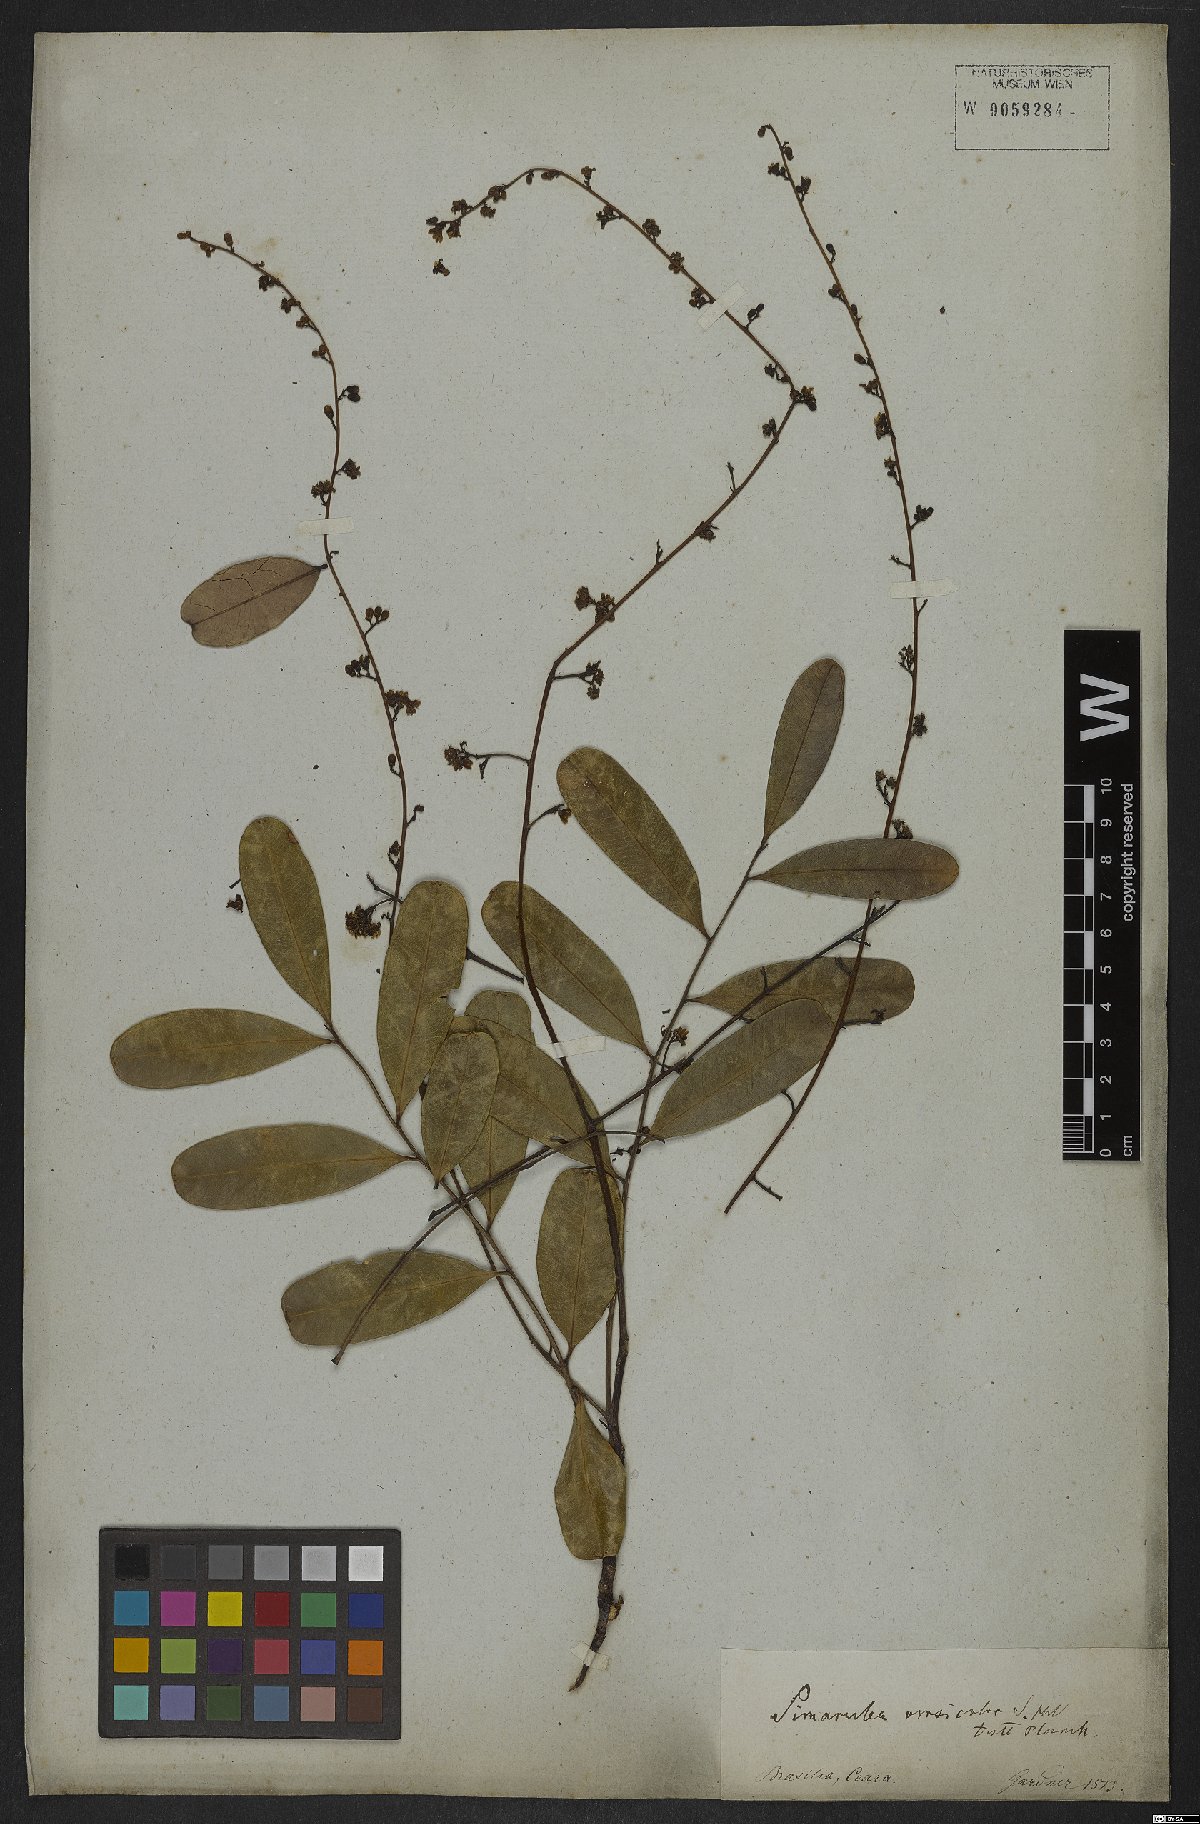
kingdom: Plantae
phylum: Tracheophyta
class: Magnoliopsida
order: Sapindales
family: Simaroubaceae
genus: Simarouba
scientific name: Simarouba versicolor
